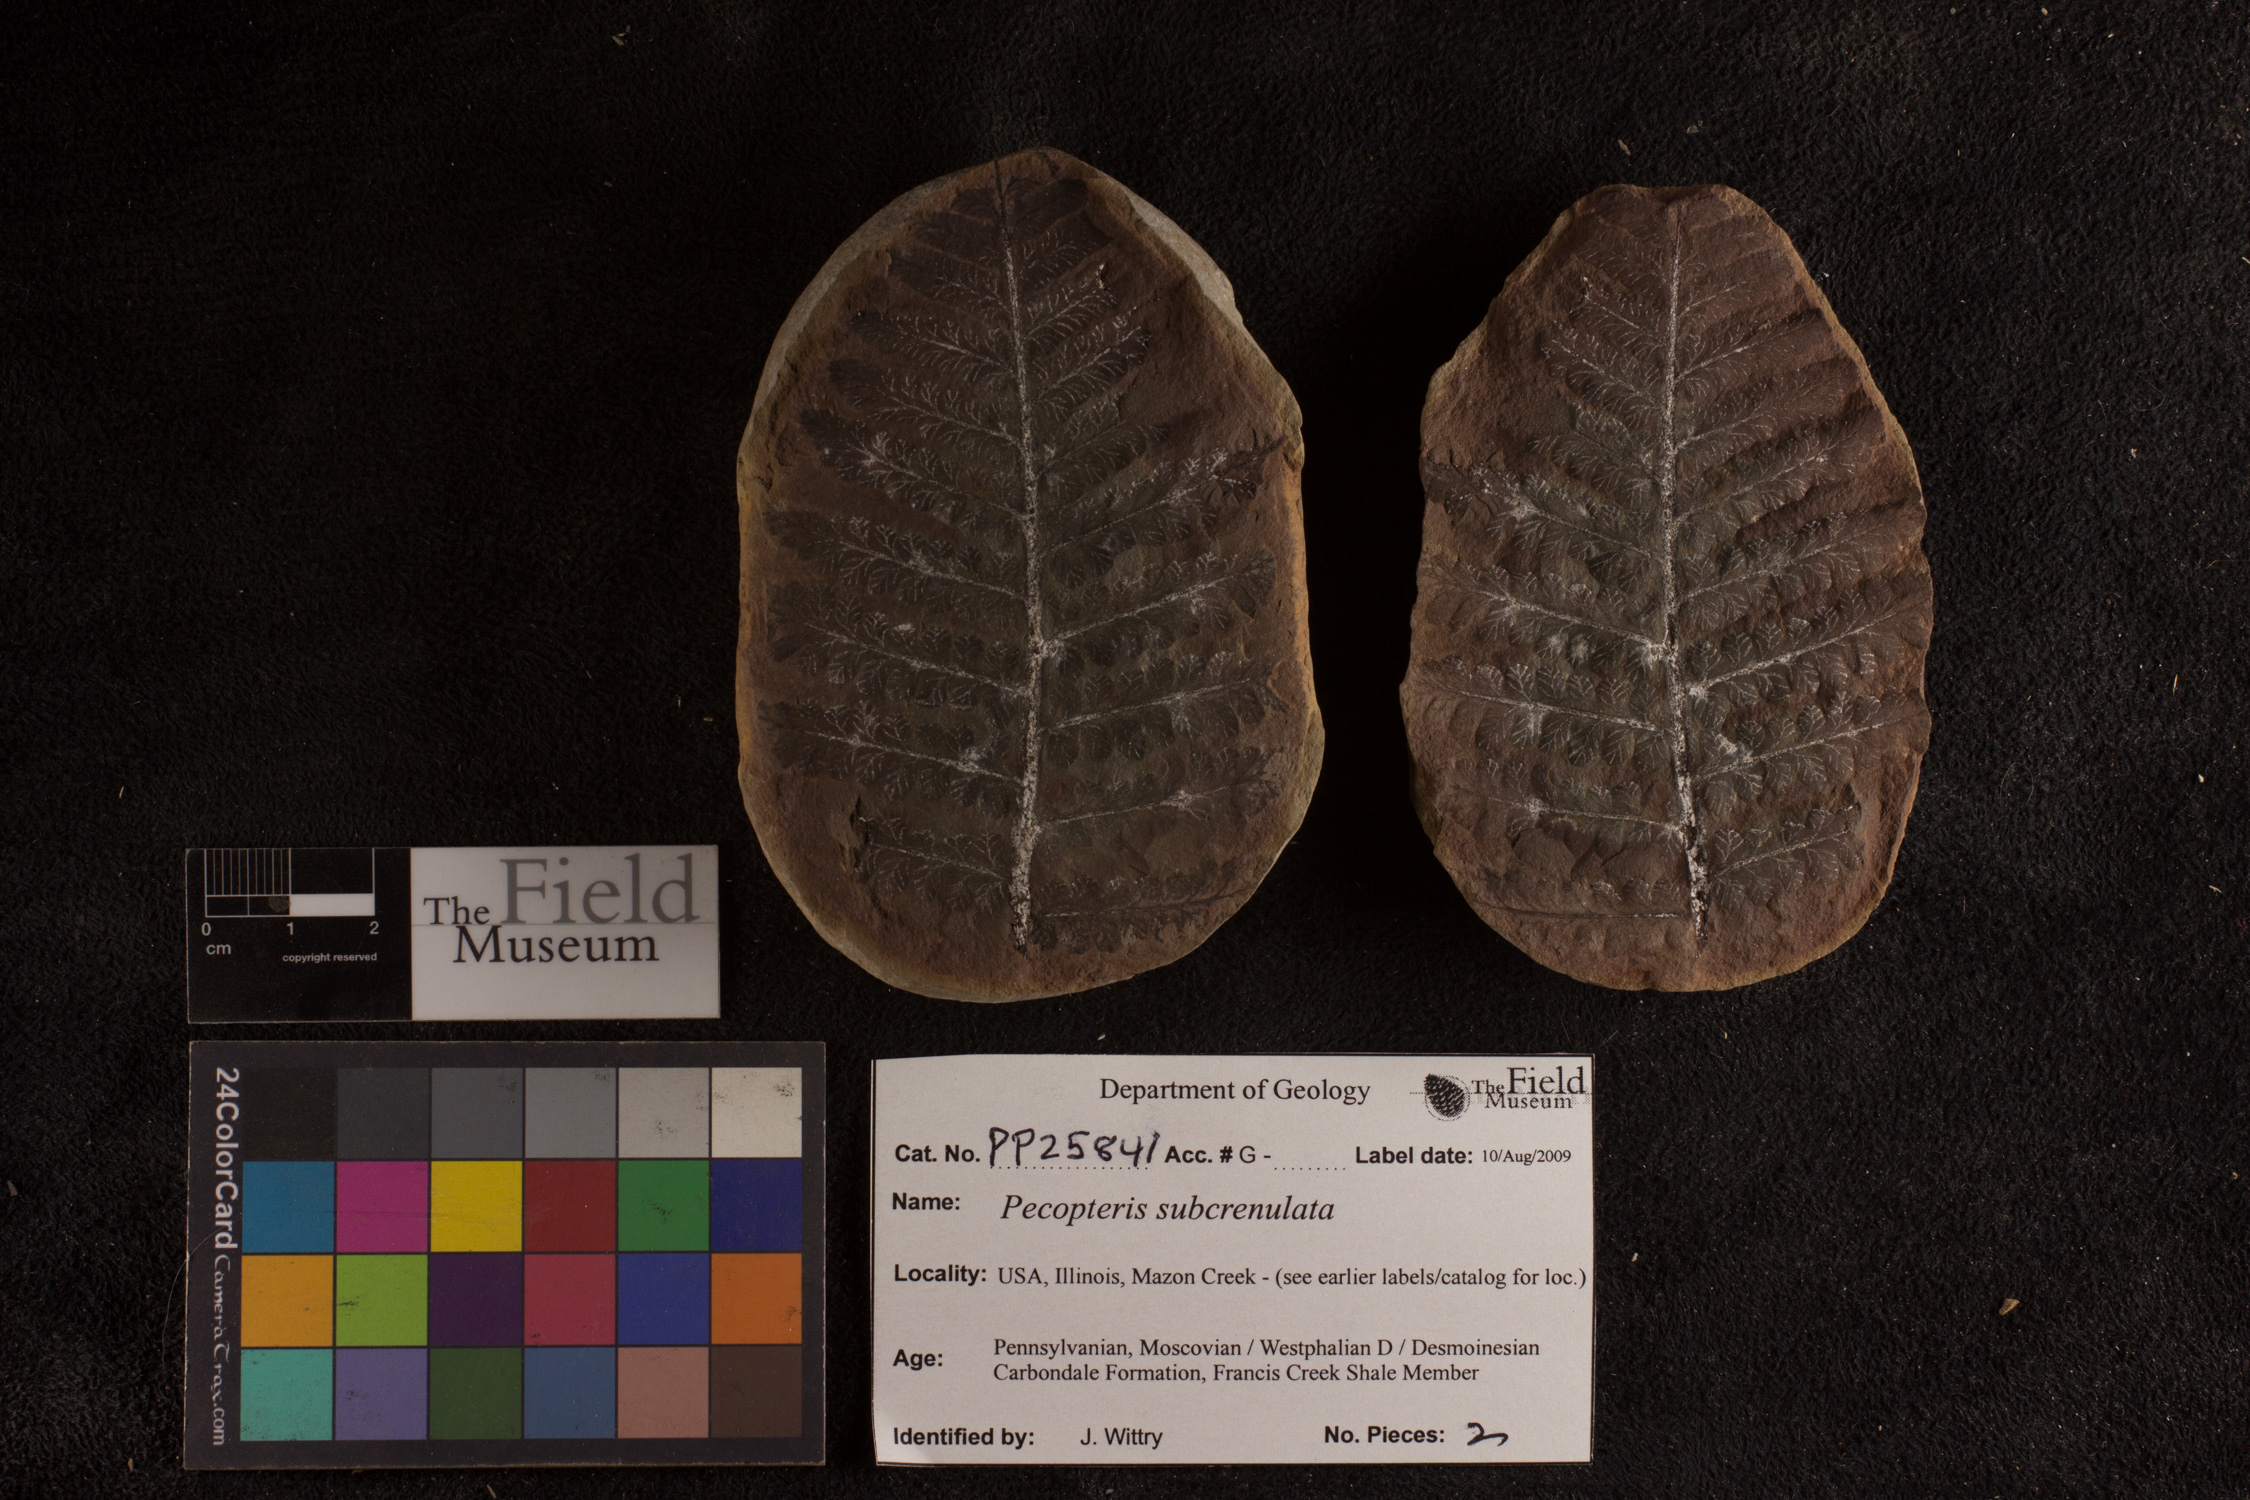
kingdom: Plantae
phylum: Tracheophyta
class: Polypodiopsida
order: Marattiales
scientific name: Marattiales
